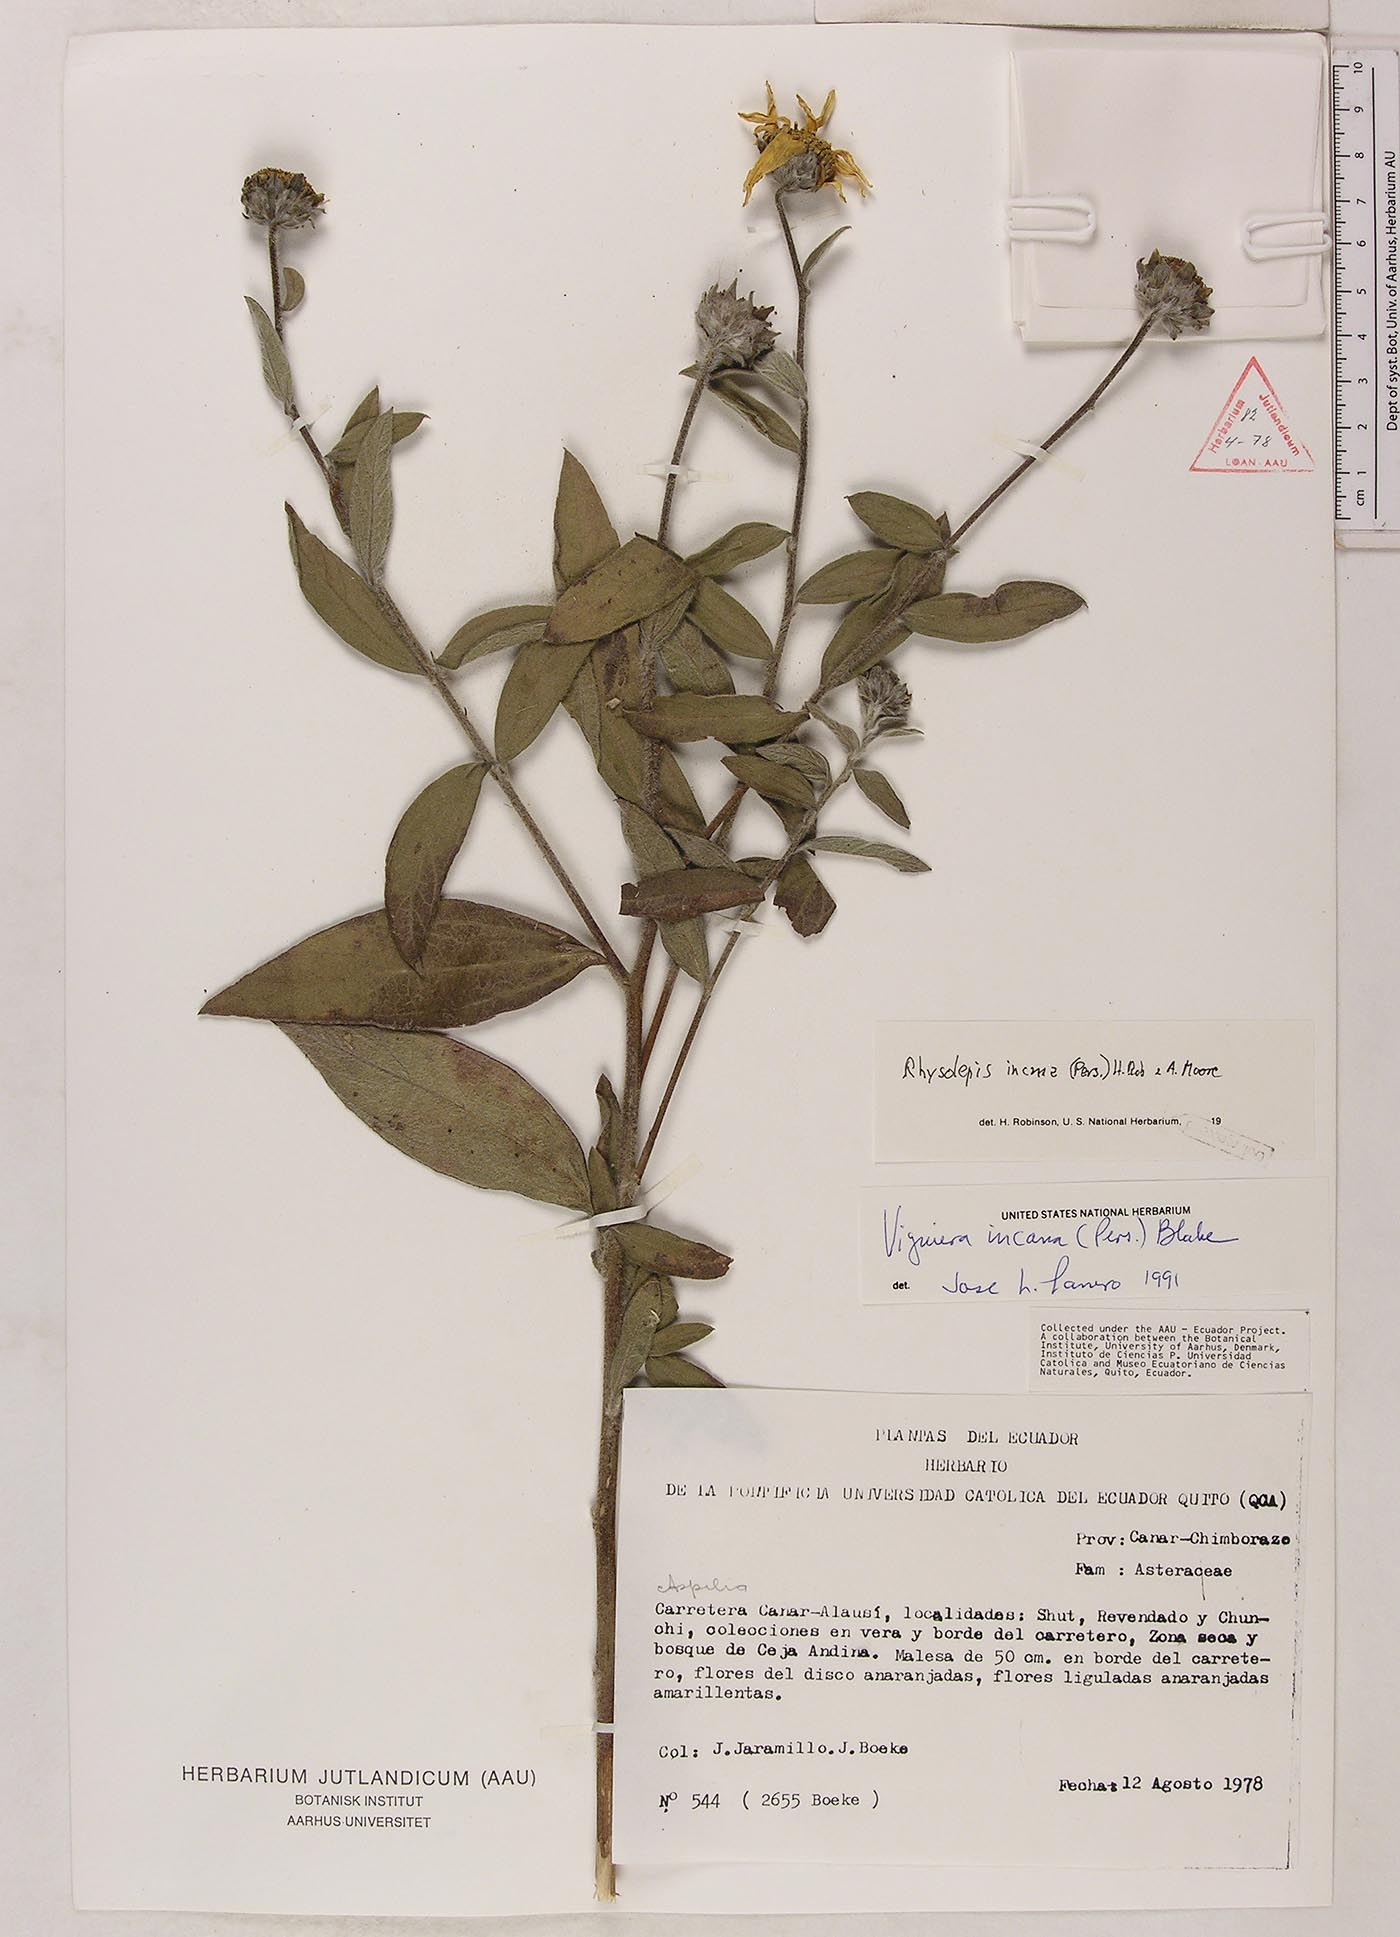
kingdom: Plantae
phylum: Tracheophyta
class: Magnoliopsida
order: Asterales
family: Asteraceae
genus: Aldama
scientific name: Aldama incana
